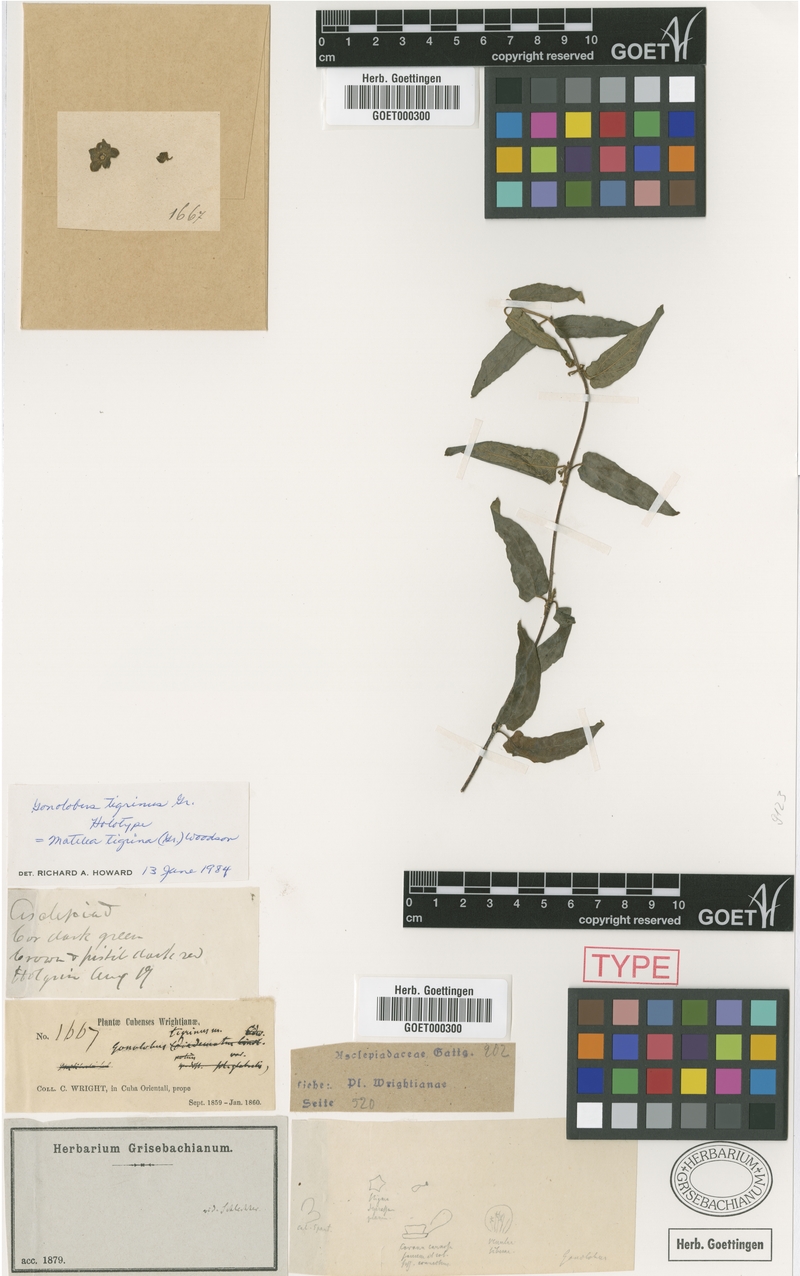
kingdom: Plantae
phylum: Tracheophyta
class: Magnoliopsida
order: Gentianales
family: Apocynaceae
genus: Matelea
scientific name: Matelea tigrina
